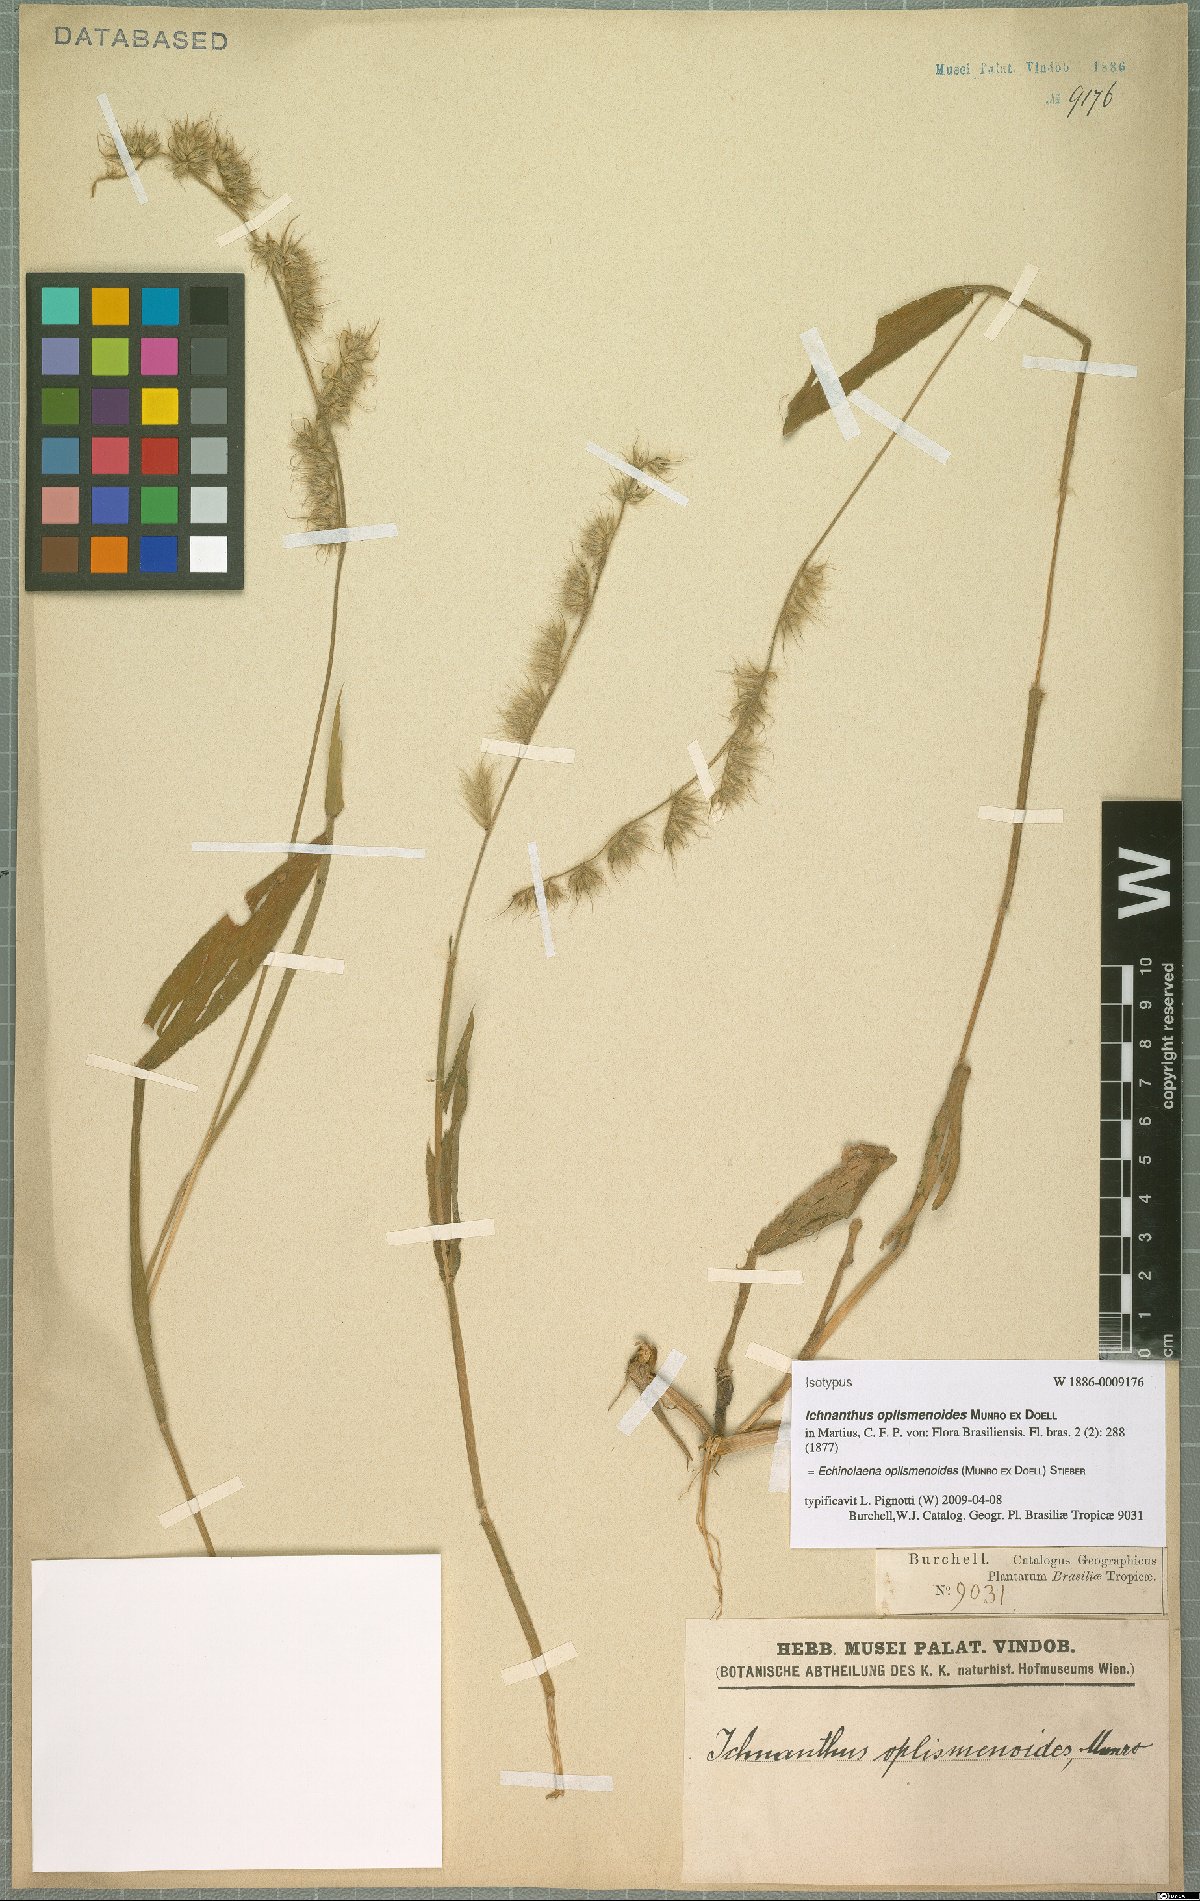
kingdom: Plantae
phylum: Tracheophyta
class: Liliopsida
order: Poales
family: Poaceae
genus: Ichnanthus
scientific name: Ichnanthus oplismenoides
